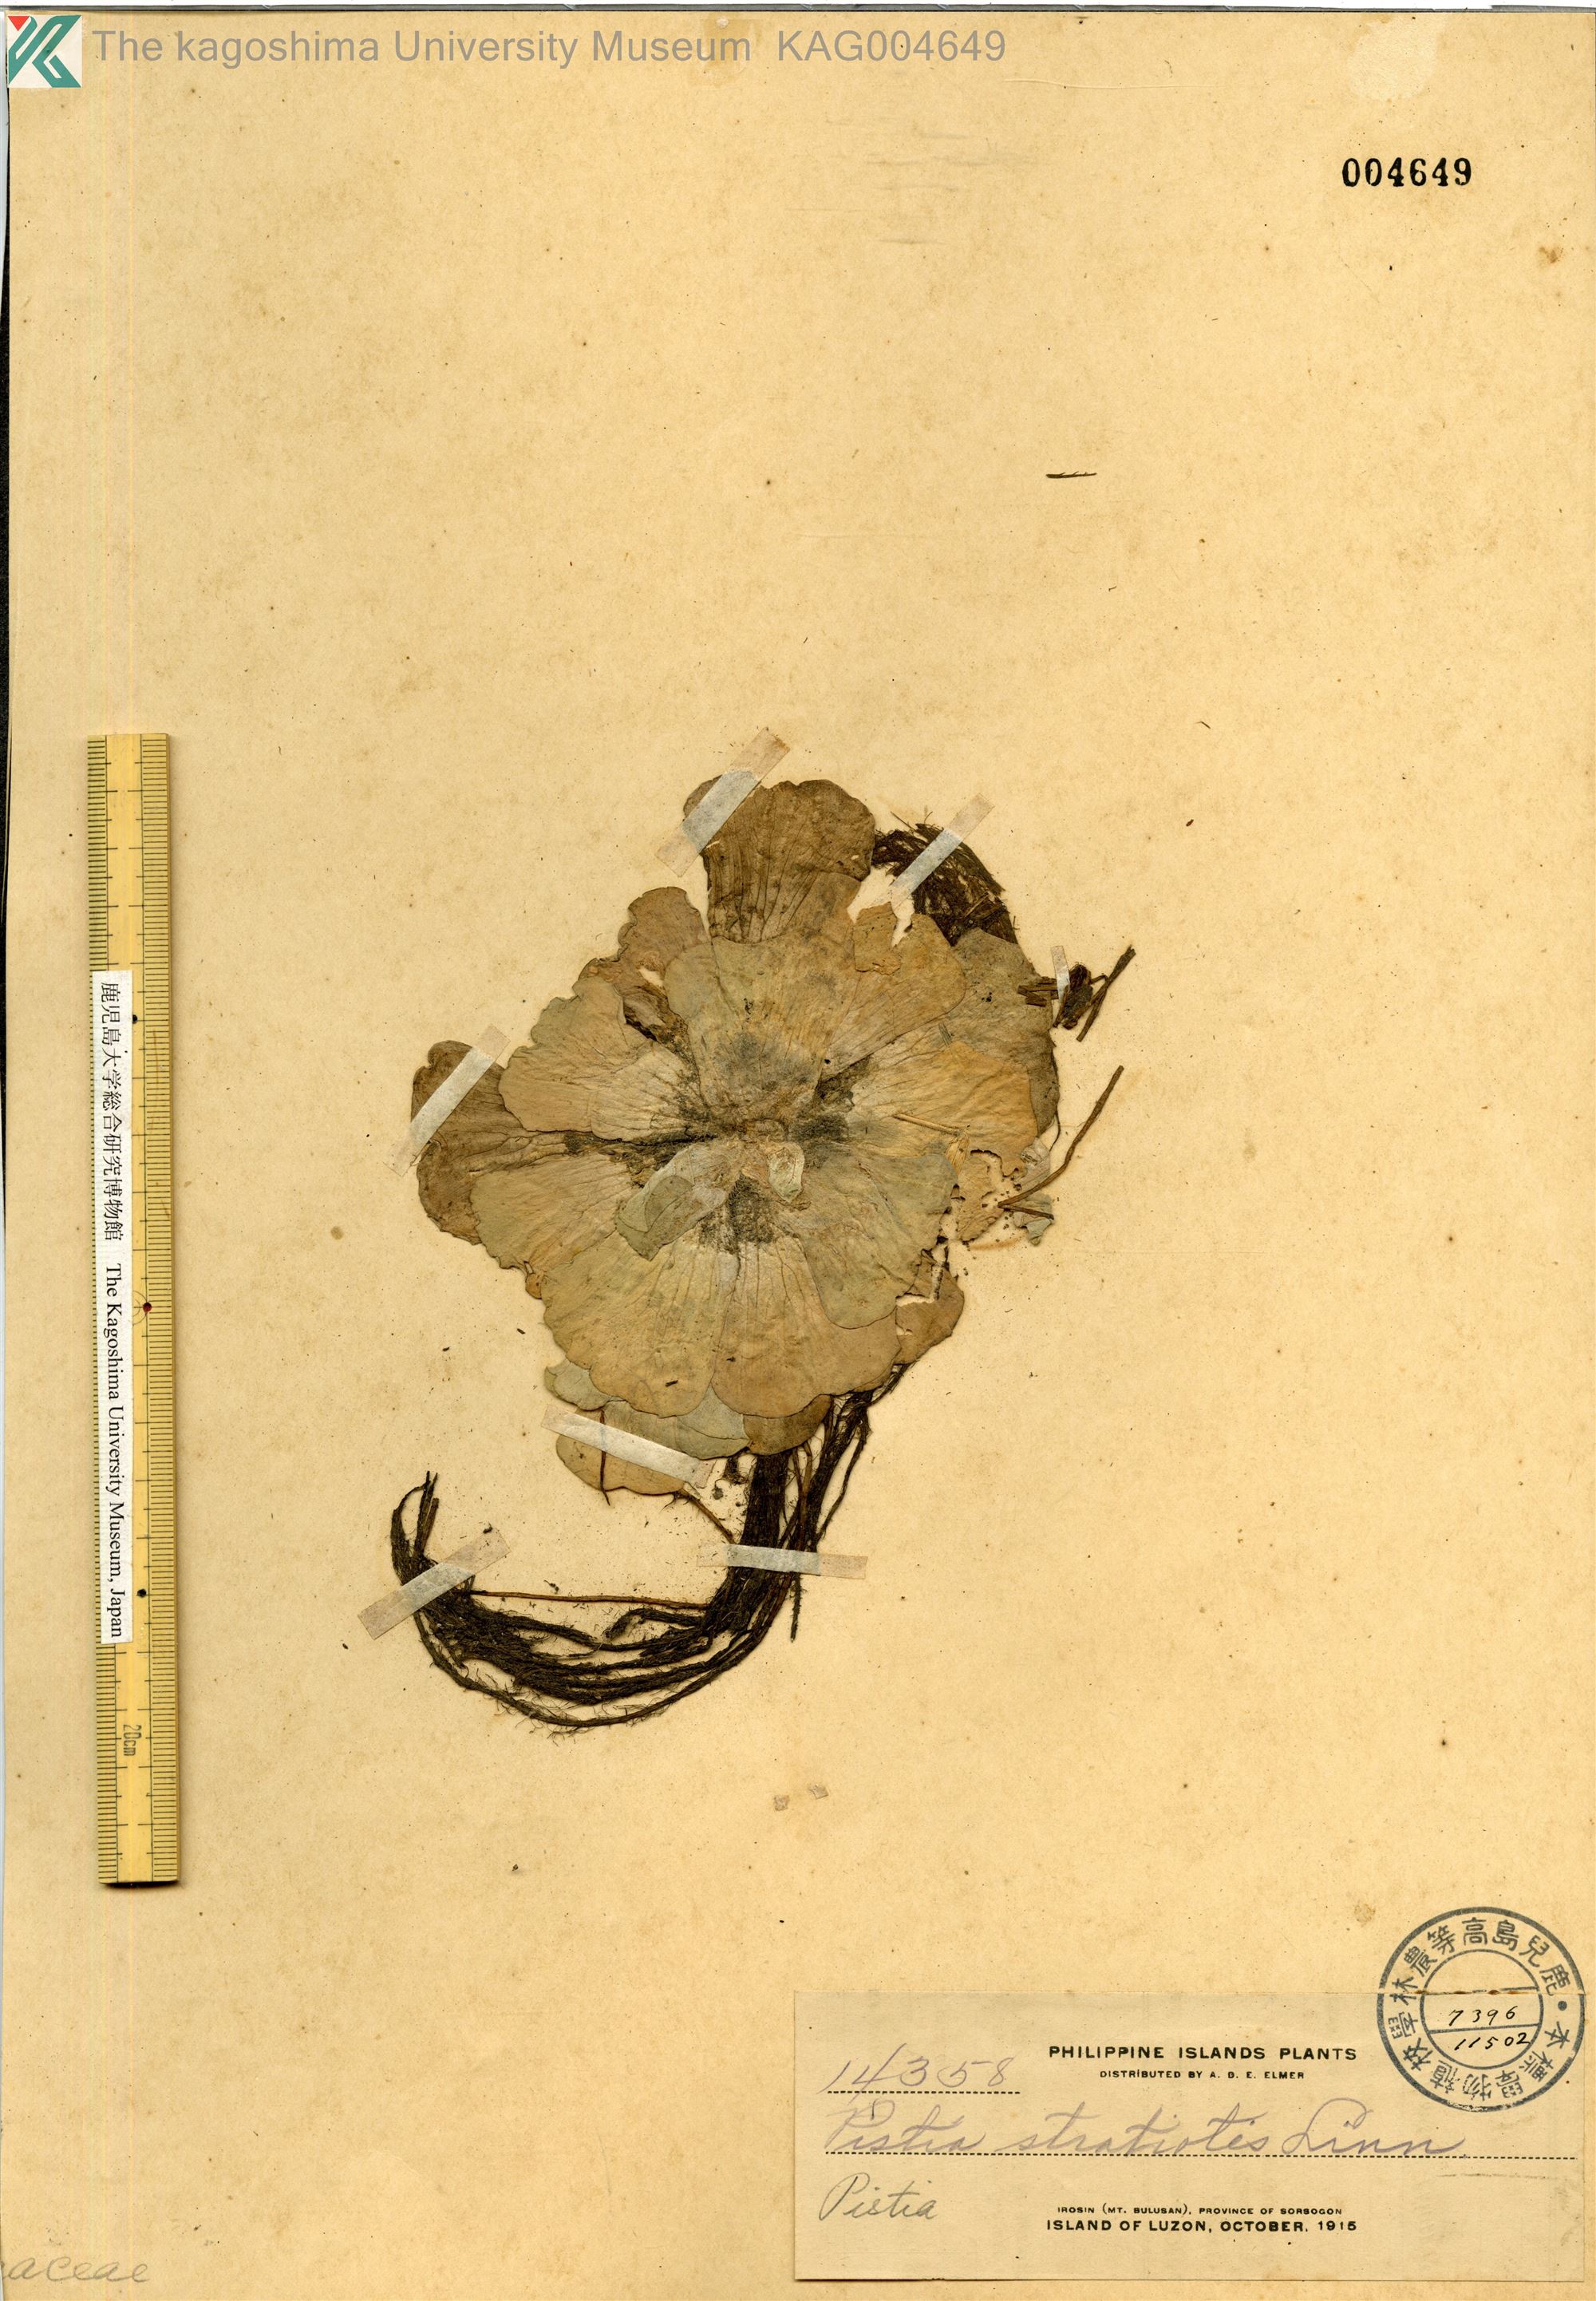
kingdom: Plantae
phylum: Tracheophyta
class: Liliopsida
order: Alismatales
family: Araceae
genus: Pistia
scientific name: Pistia stratiotes
